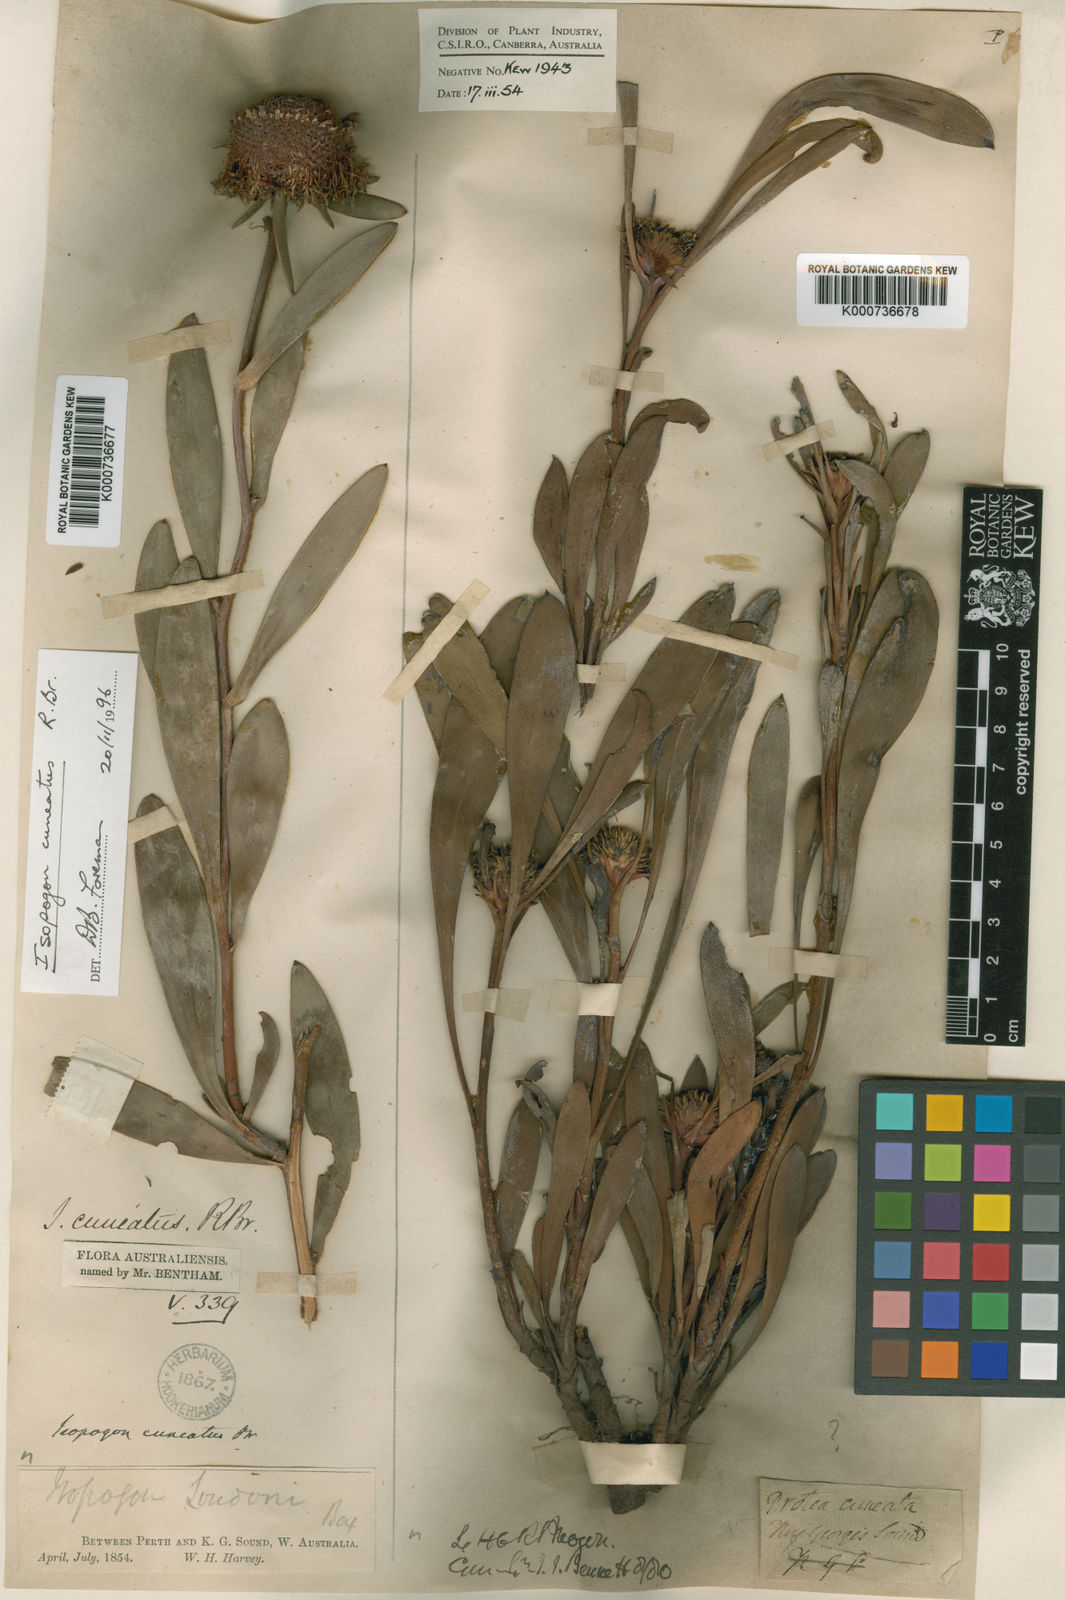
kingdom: Plantae
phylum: Tracheophyta
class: Magnoliopsida
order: Proteales
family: Proteaceae
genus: Isopogon
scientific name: Isopogon cuneatus
